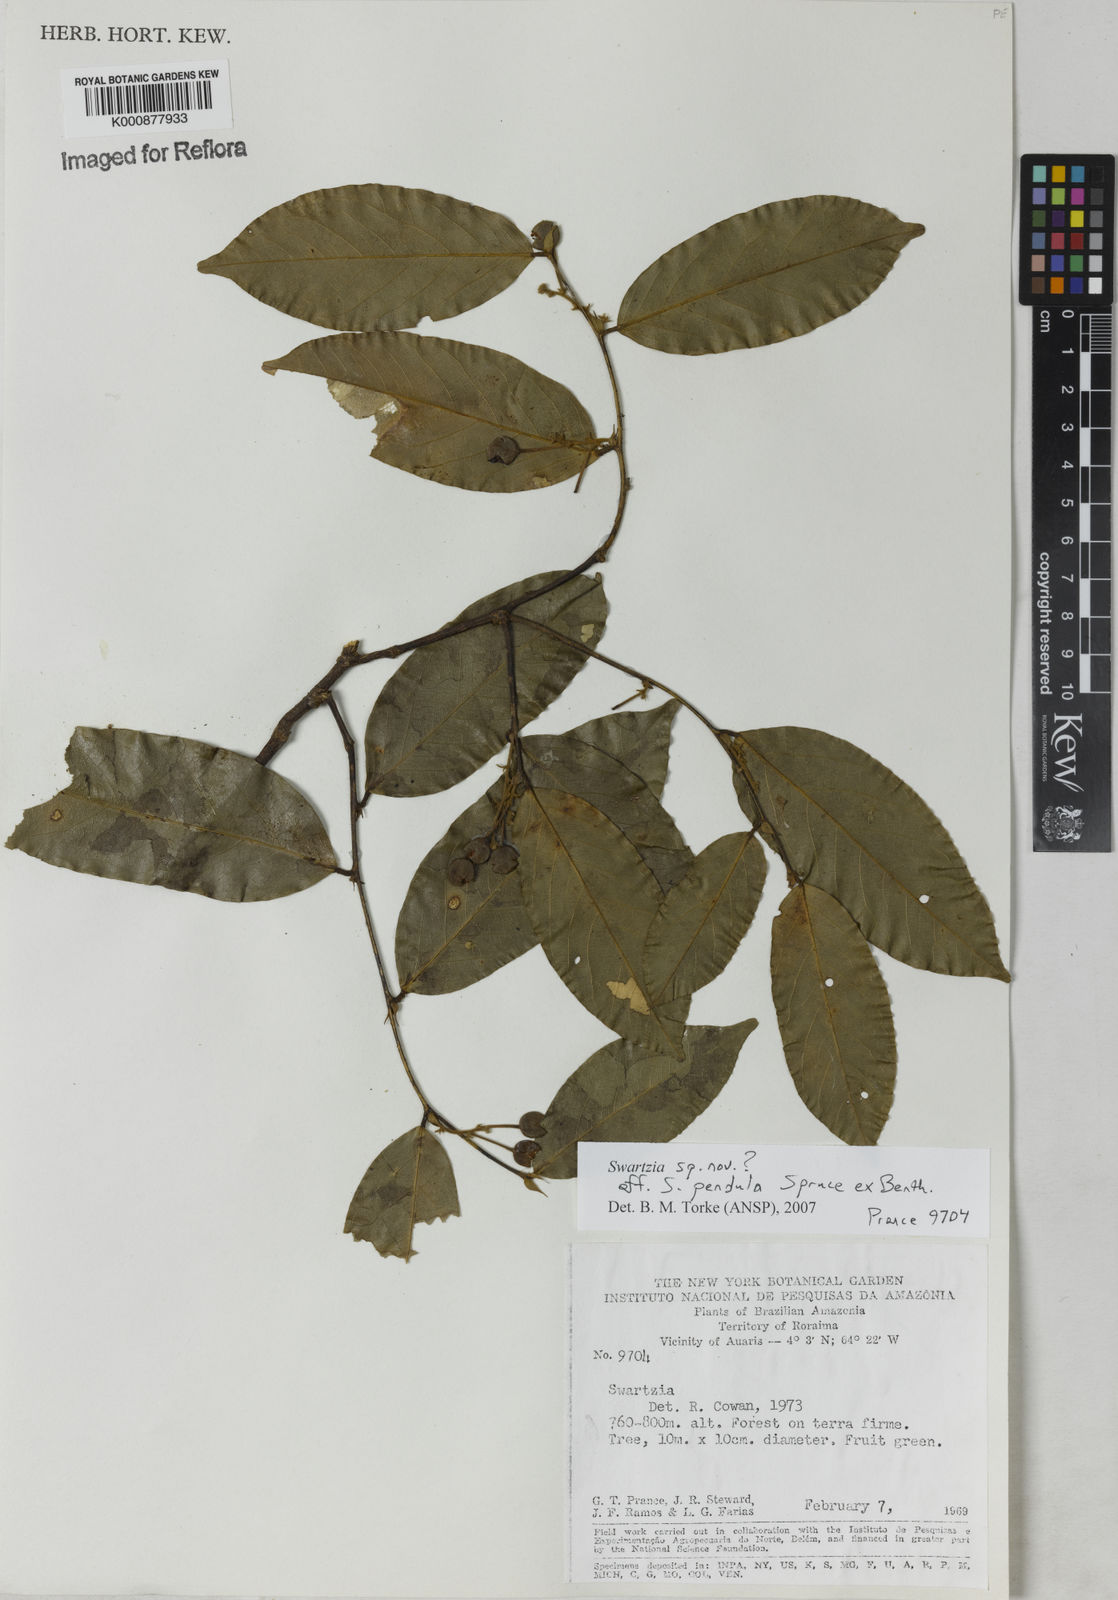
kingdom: Plantae
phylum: Tracheophyta
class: Magnoliopsida
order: Fabales
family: Fabaceae
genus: Swartzia
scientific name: Swartzia pendula
